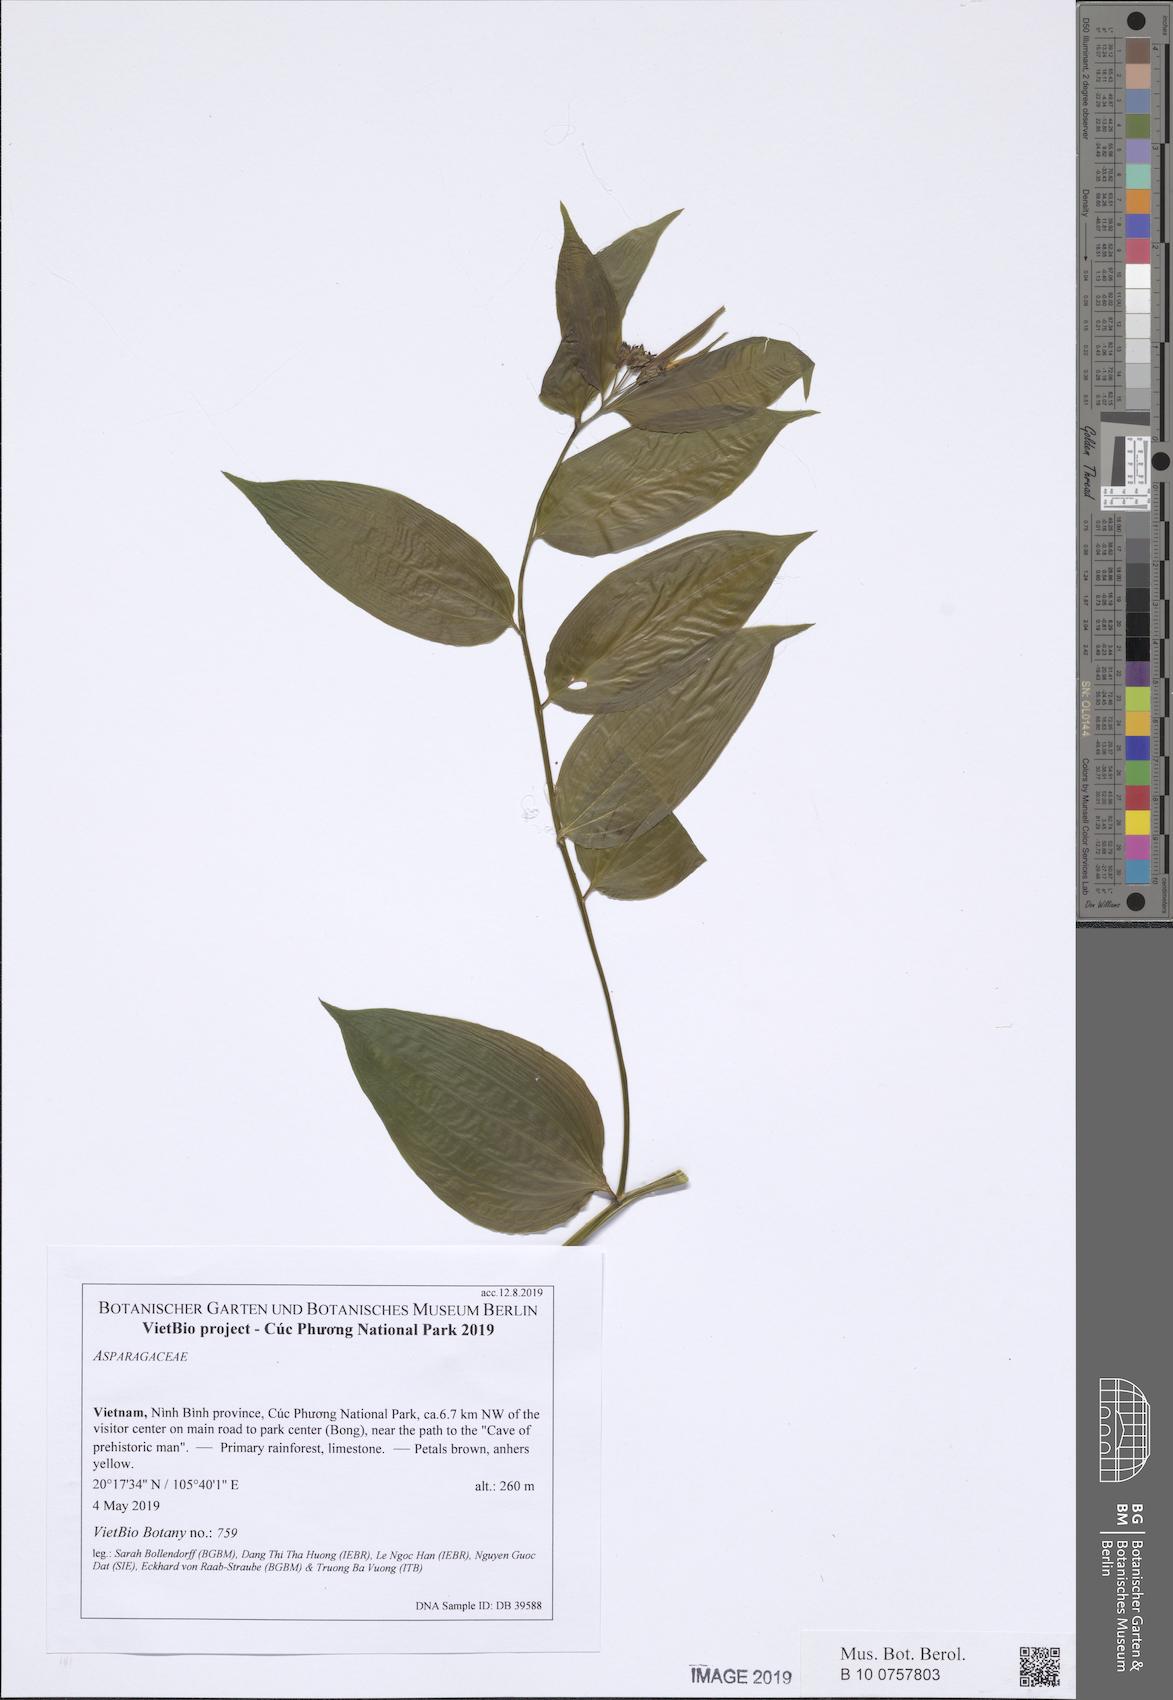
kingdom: Plantae
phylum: Tracheophyta
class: Liliopsida
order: Liliales
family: Colchicaceae
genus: Disporum
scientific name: Disporum cantoniense
